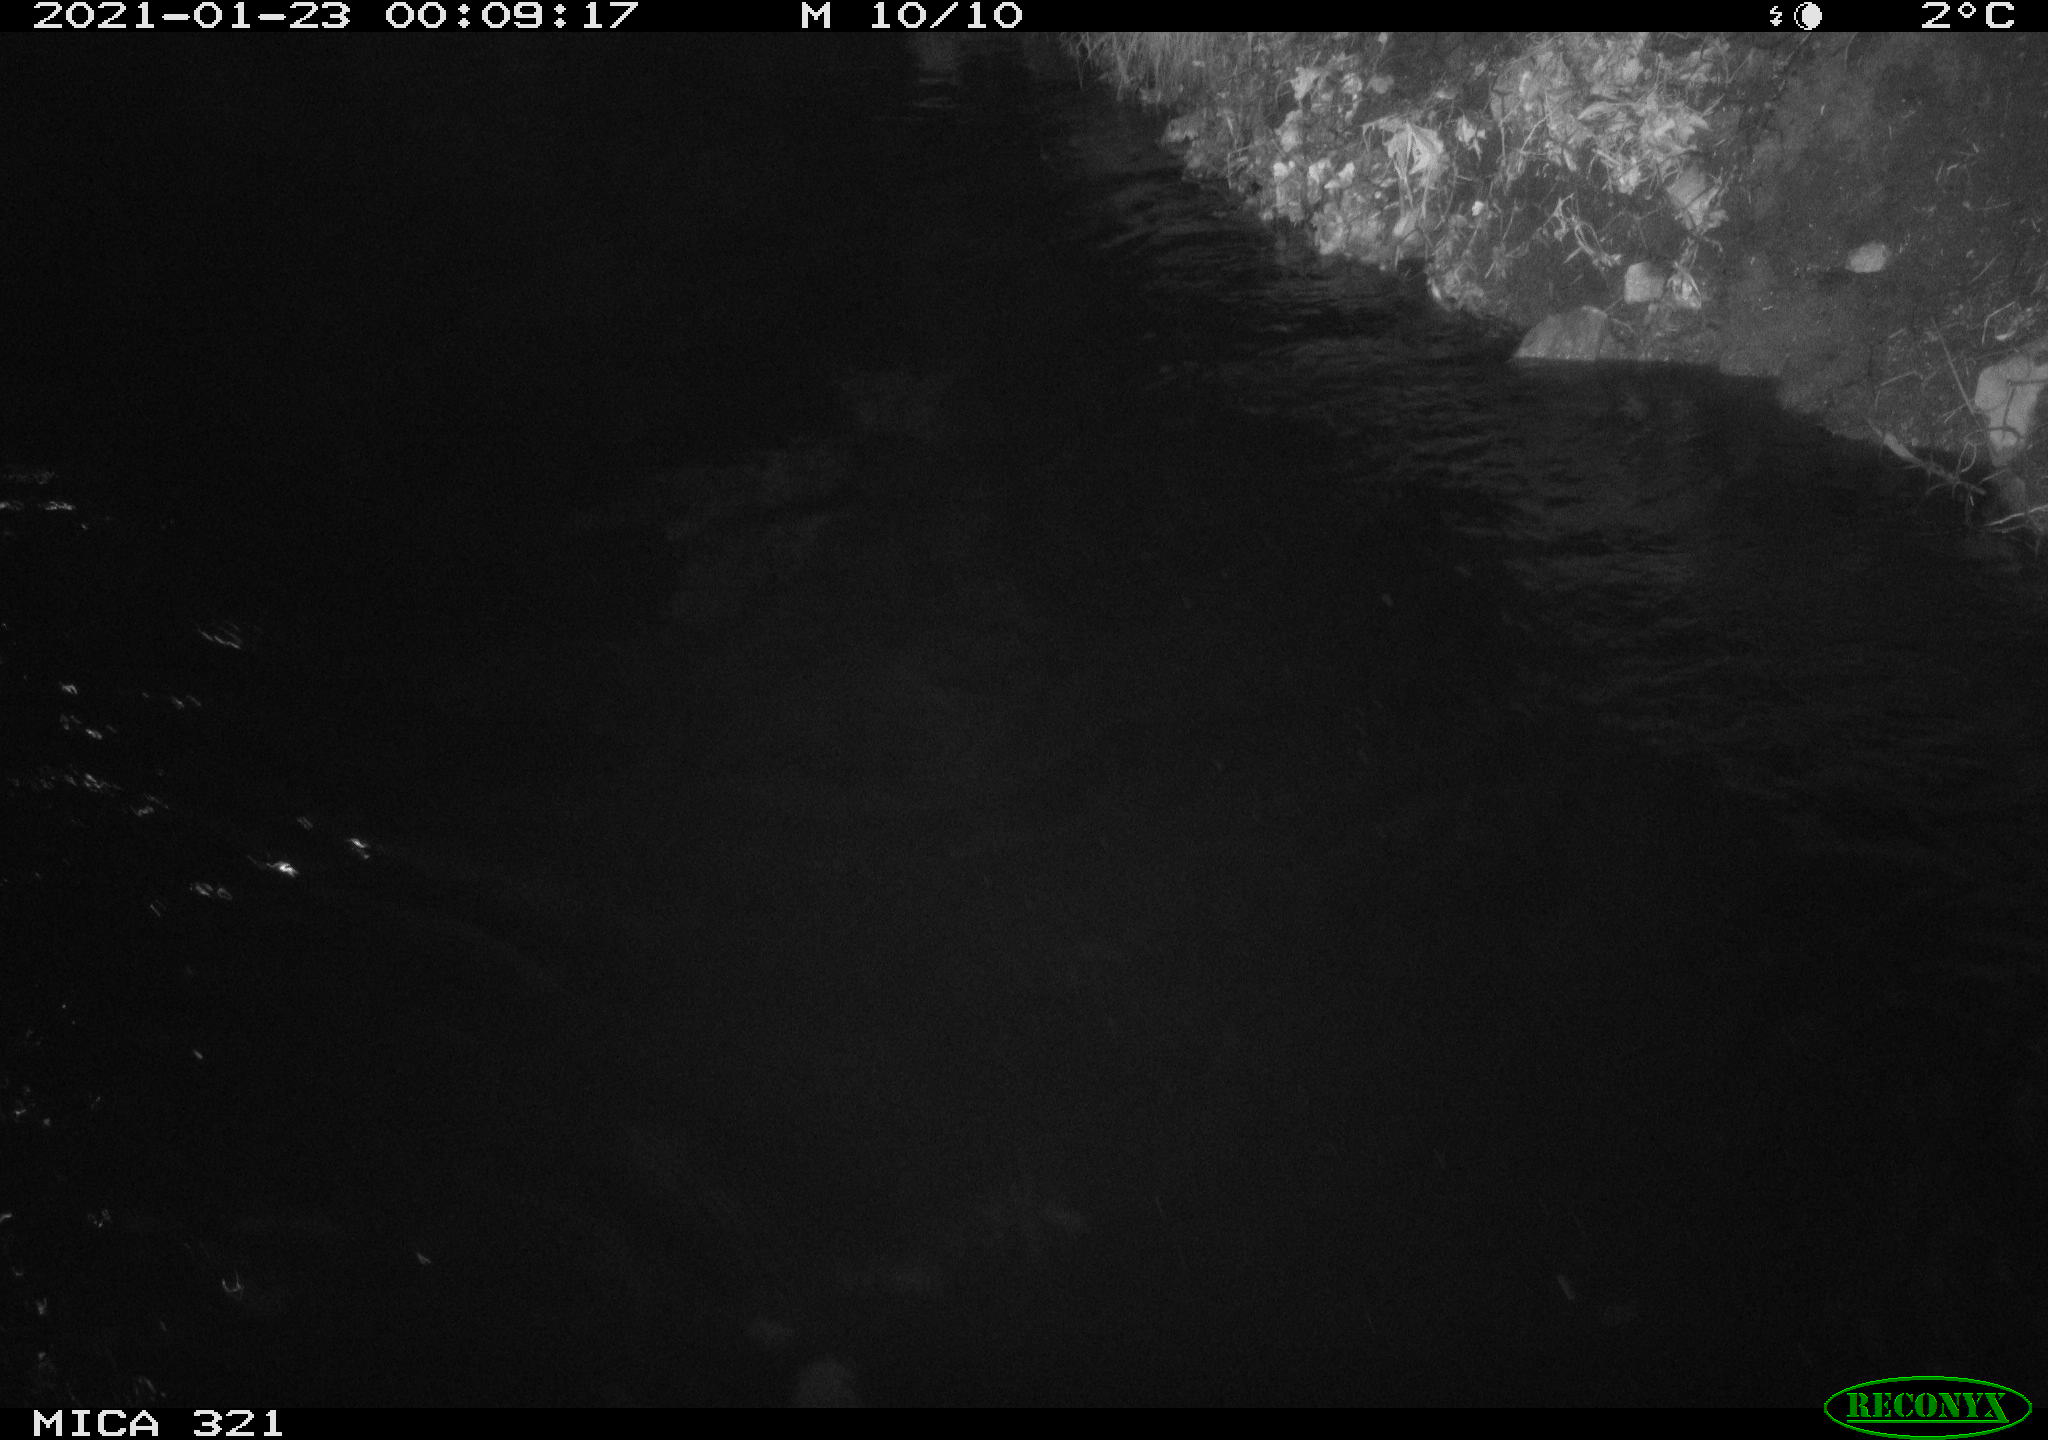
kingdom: Animalia
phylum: Chordata
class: Aves
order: Anseriformes
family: Anatidae
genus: Anas
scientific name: Anas platyrhynchos
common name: Mallard
